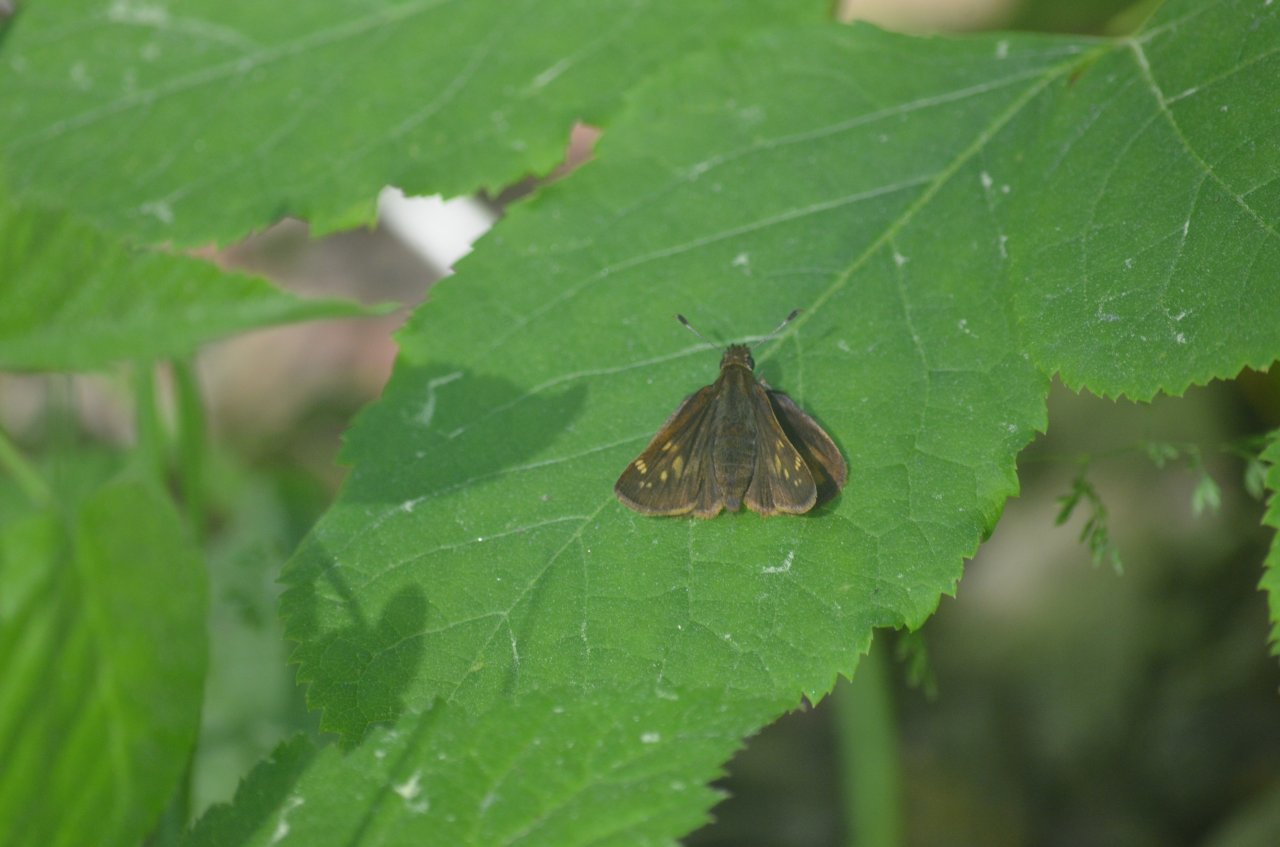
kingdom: Animalia
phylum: Arthropoda
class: Insecta
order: Lepidoptera
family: Hesperiidae
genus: Lon
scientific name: Lon hobomok
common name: Hobomok Skipper
